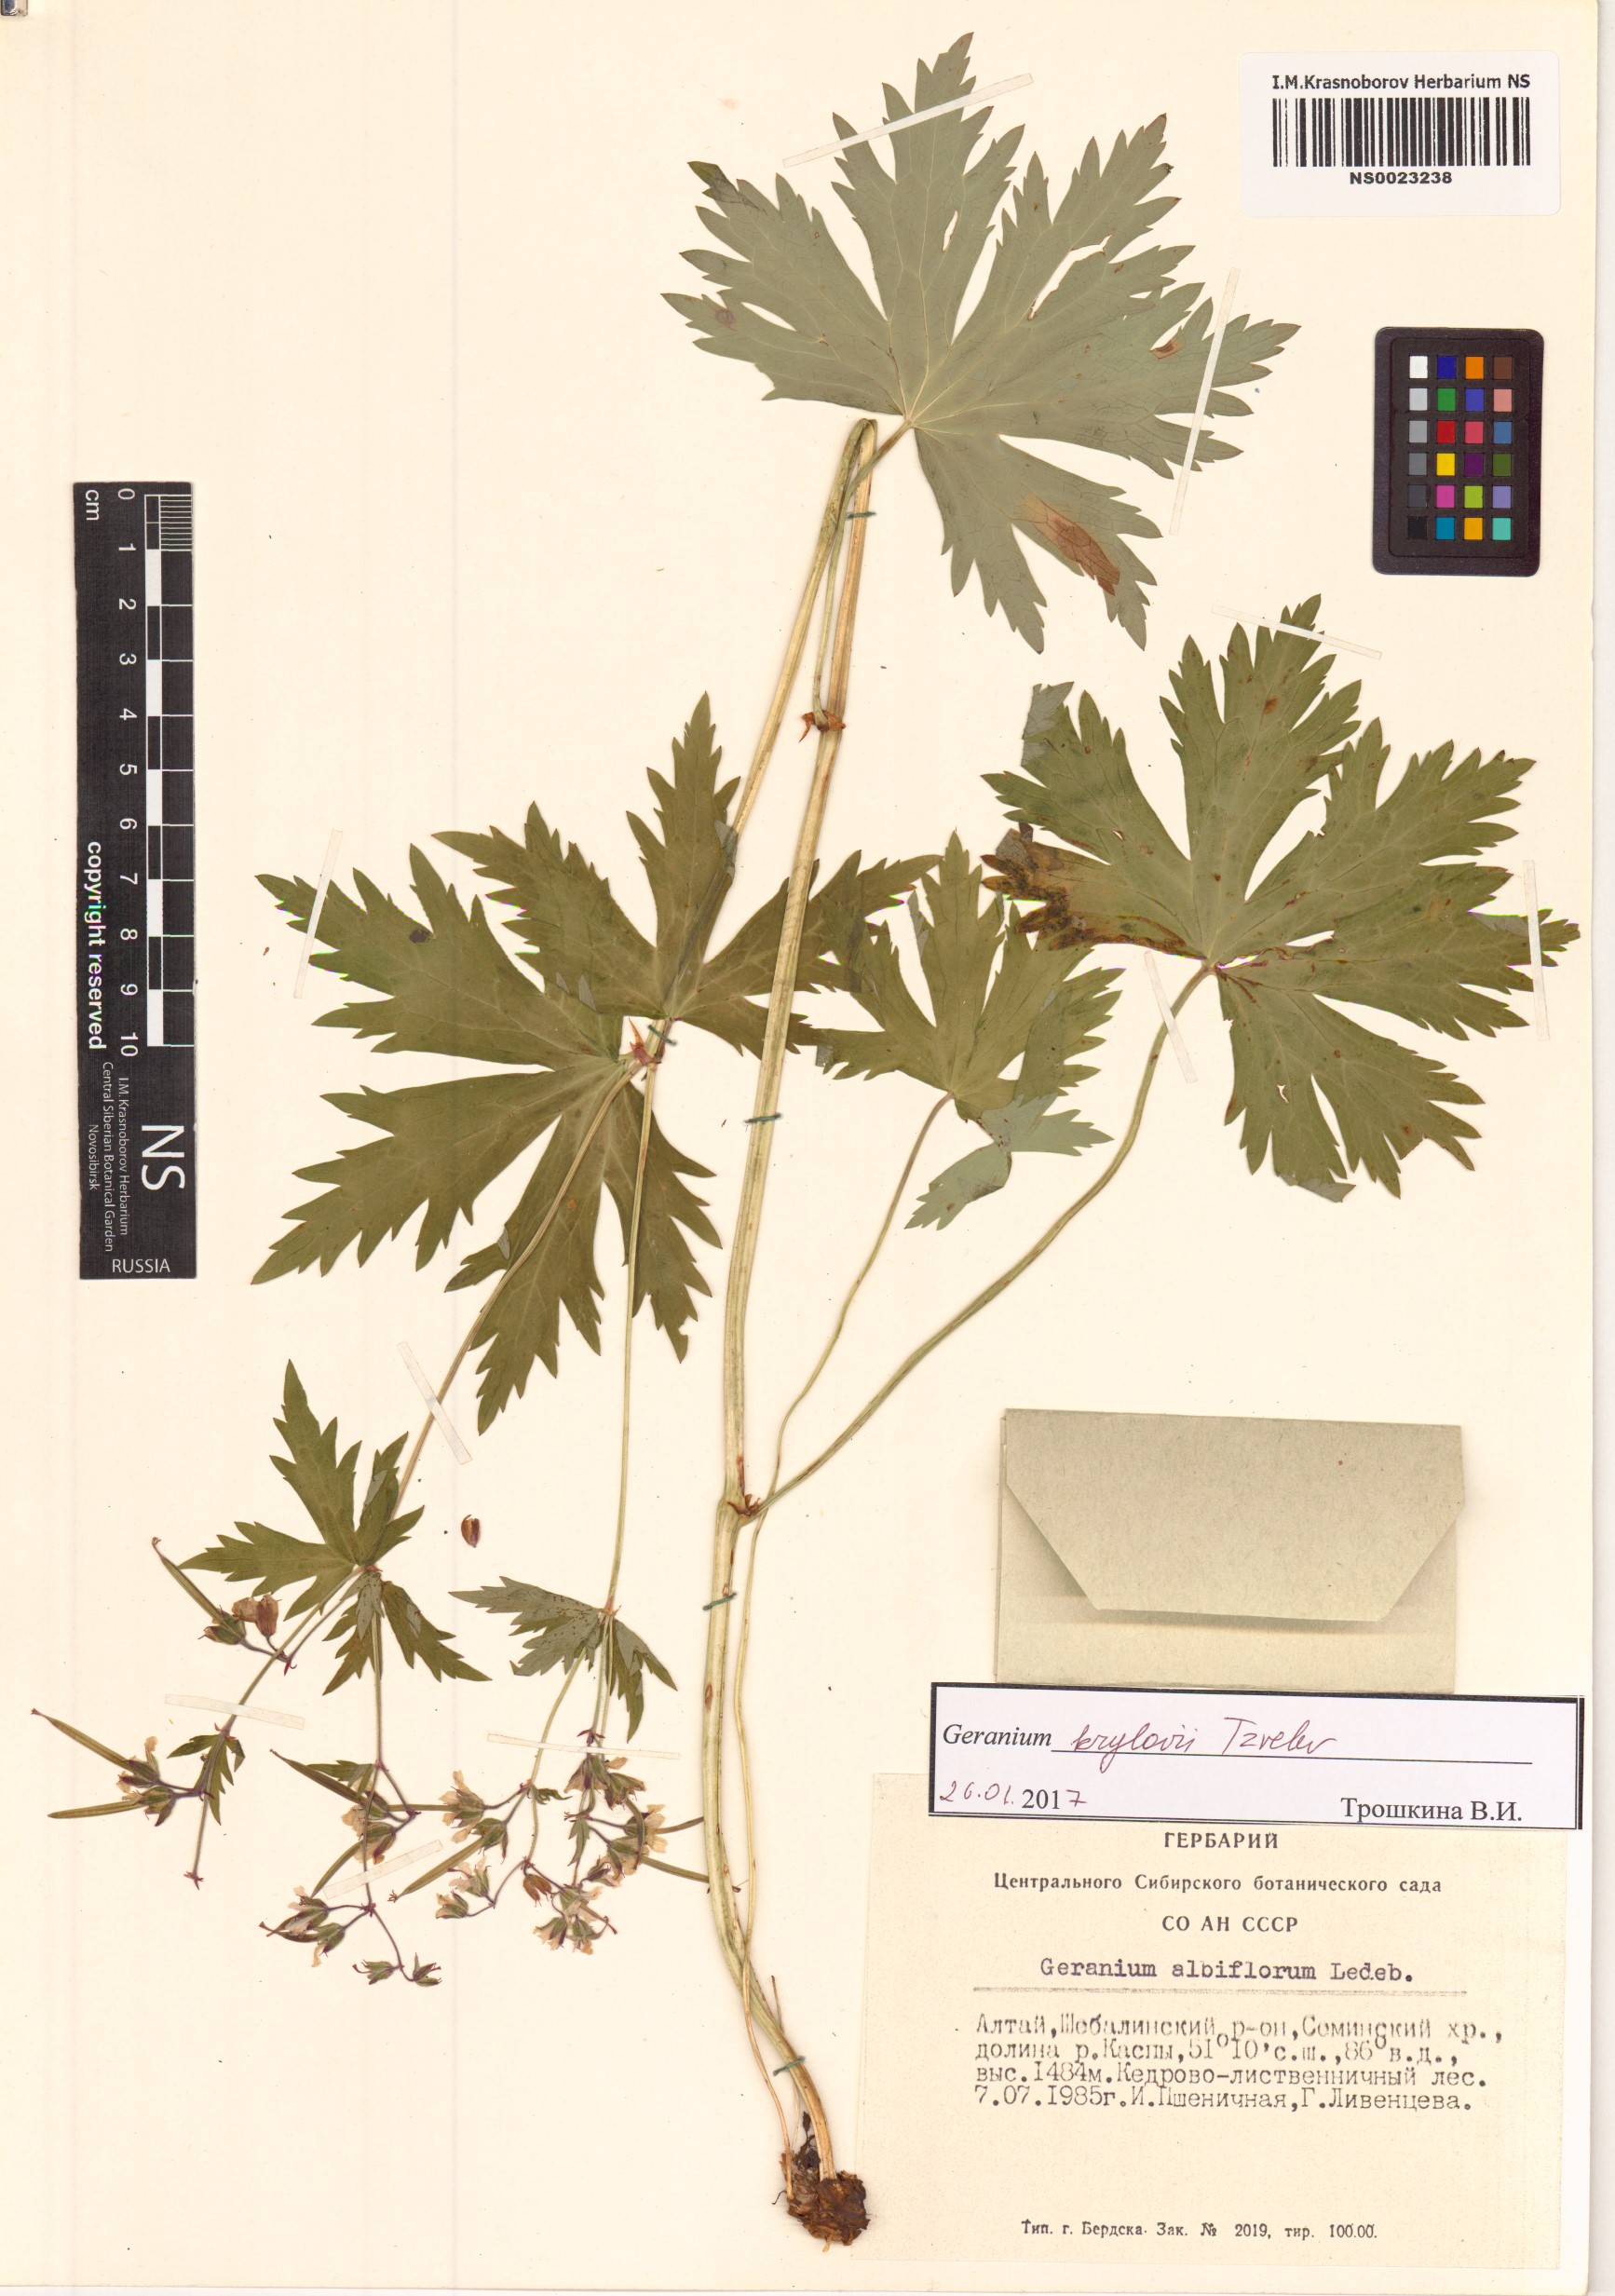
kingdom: Plantae
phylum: Tracheophyta
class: Magnoliopsida
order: Geraniales
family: Geraniaceae
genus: Geranium
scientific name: Geranium sylvaticum
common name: Wood crane's-bill
